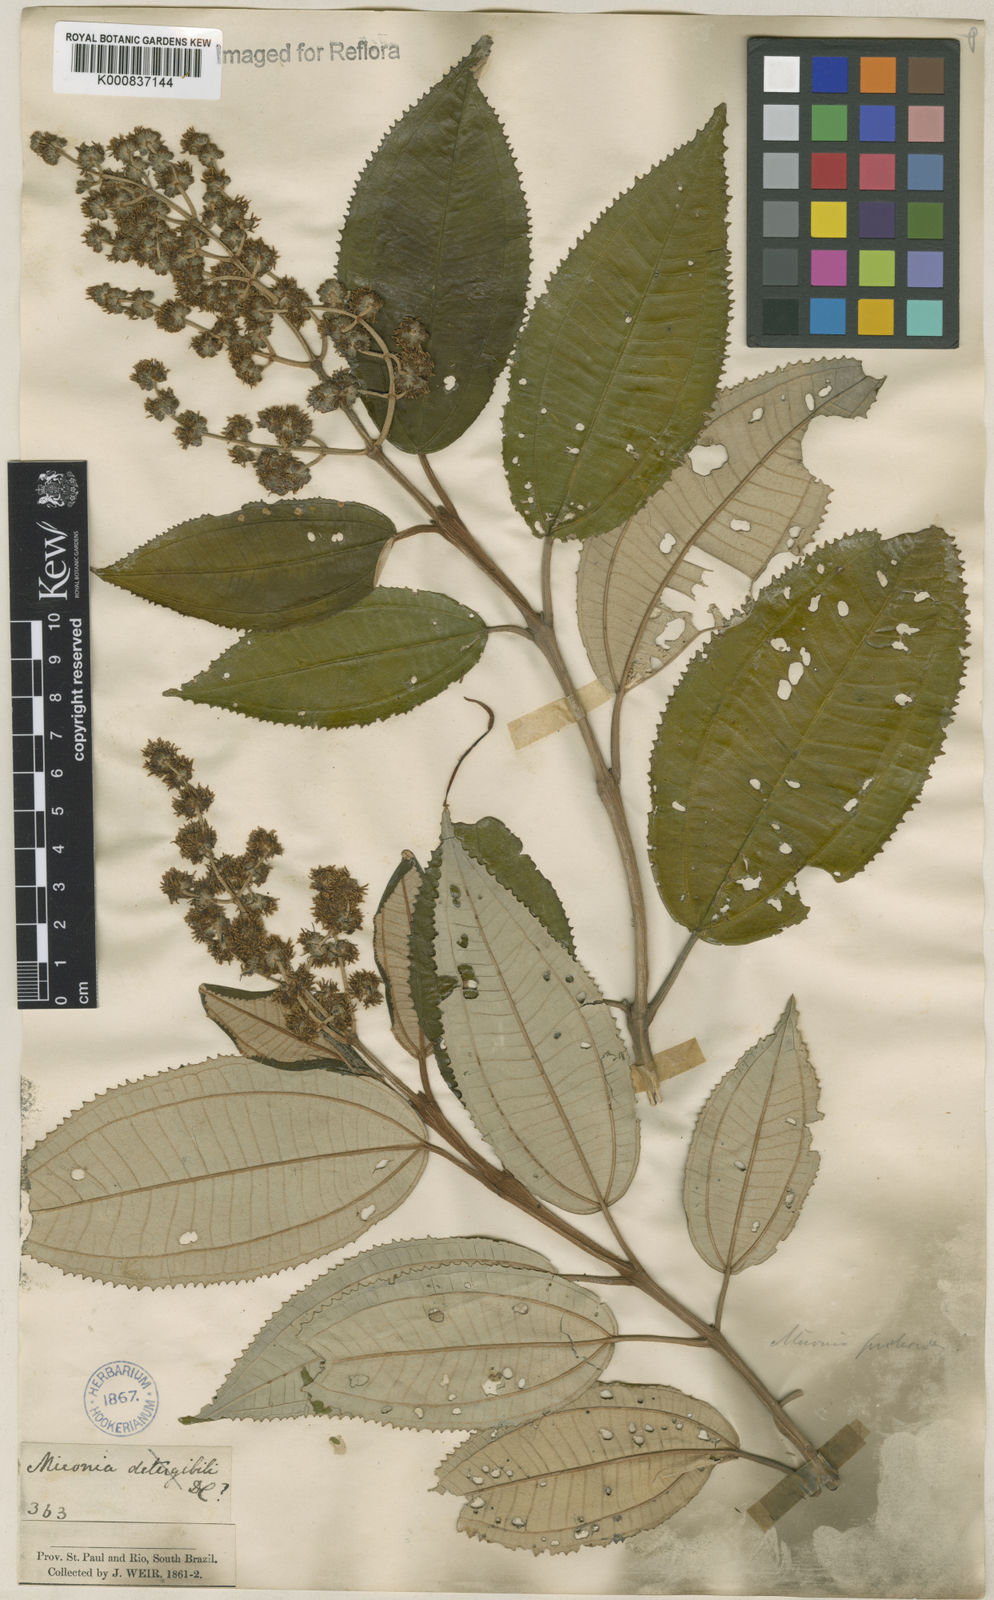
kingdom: Plantae
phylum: Tracheophyta
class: Magnoliopsida
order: Myrtales
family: Melastomataceae
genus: Miconia
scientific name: Miconia cinerascens
